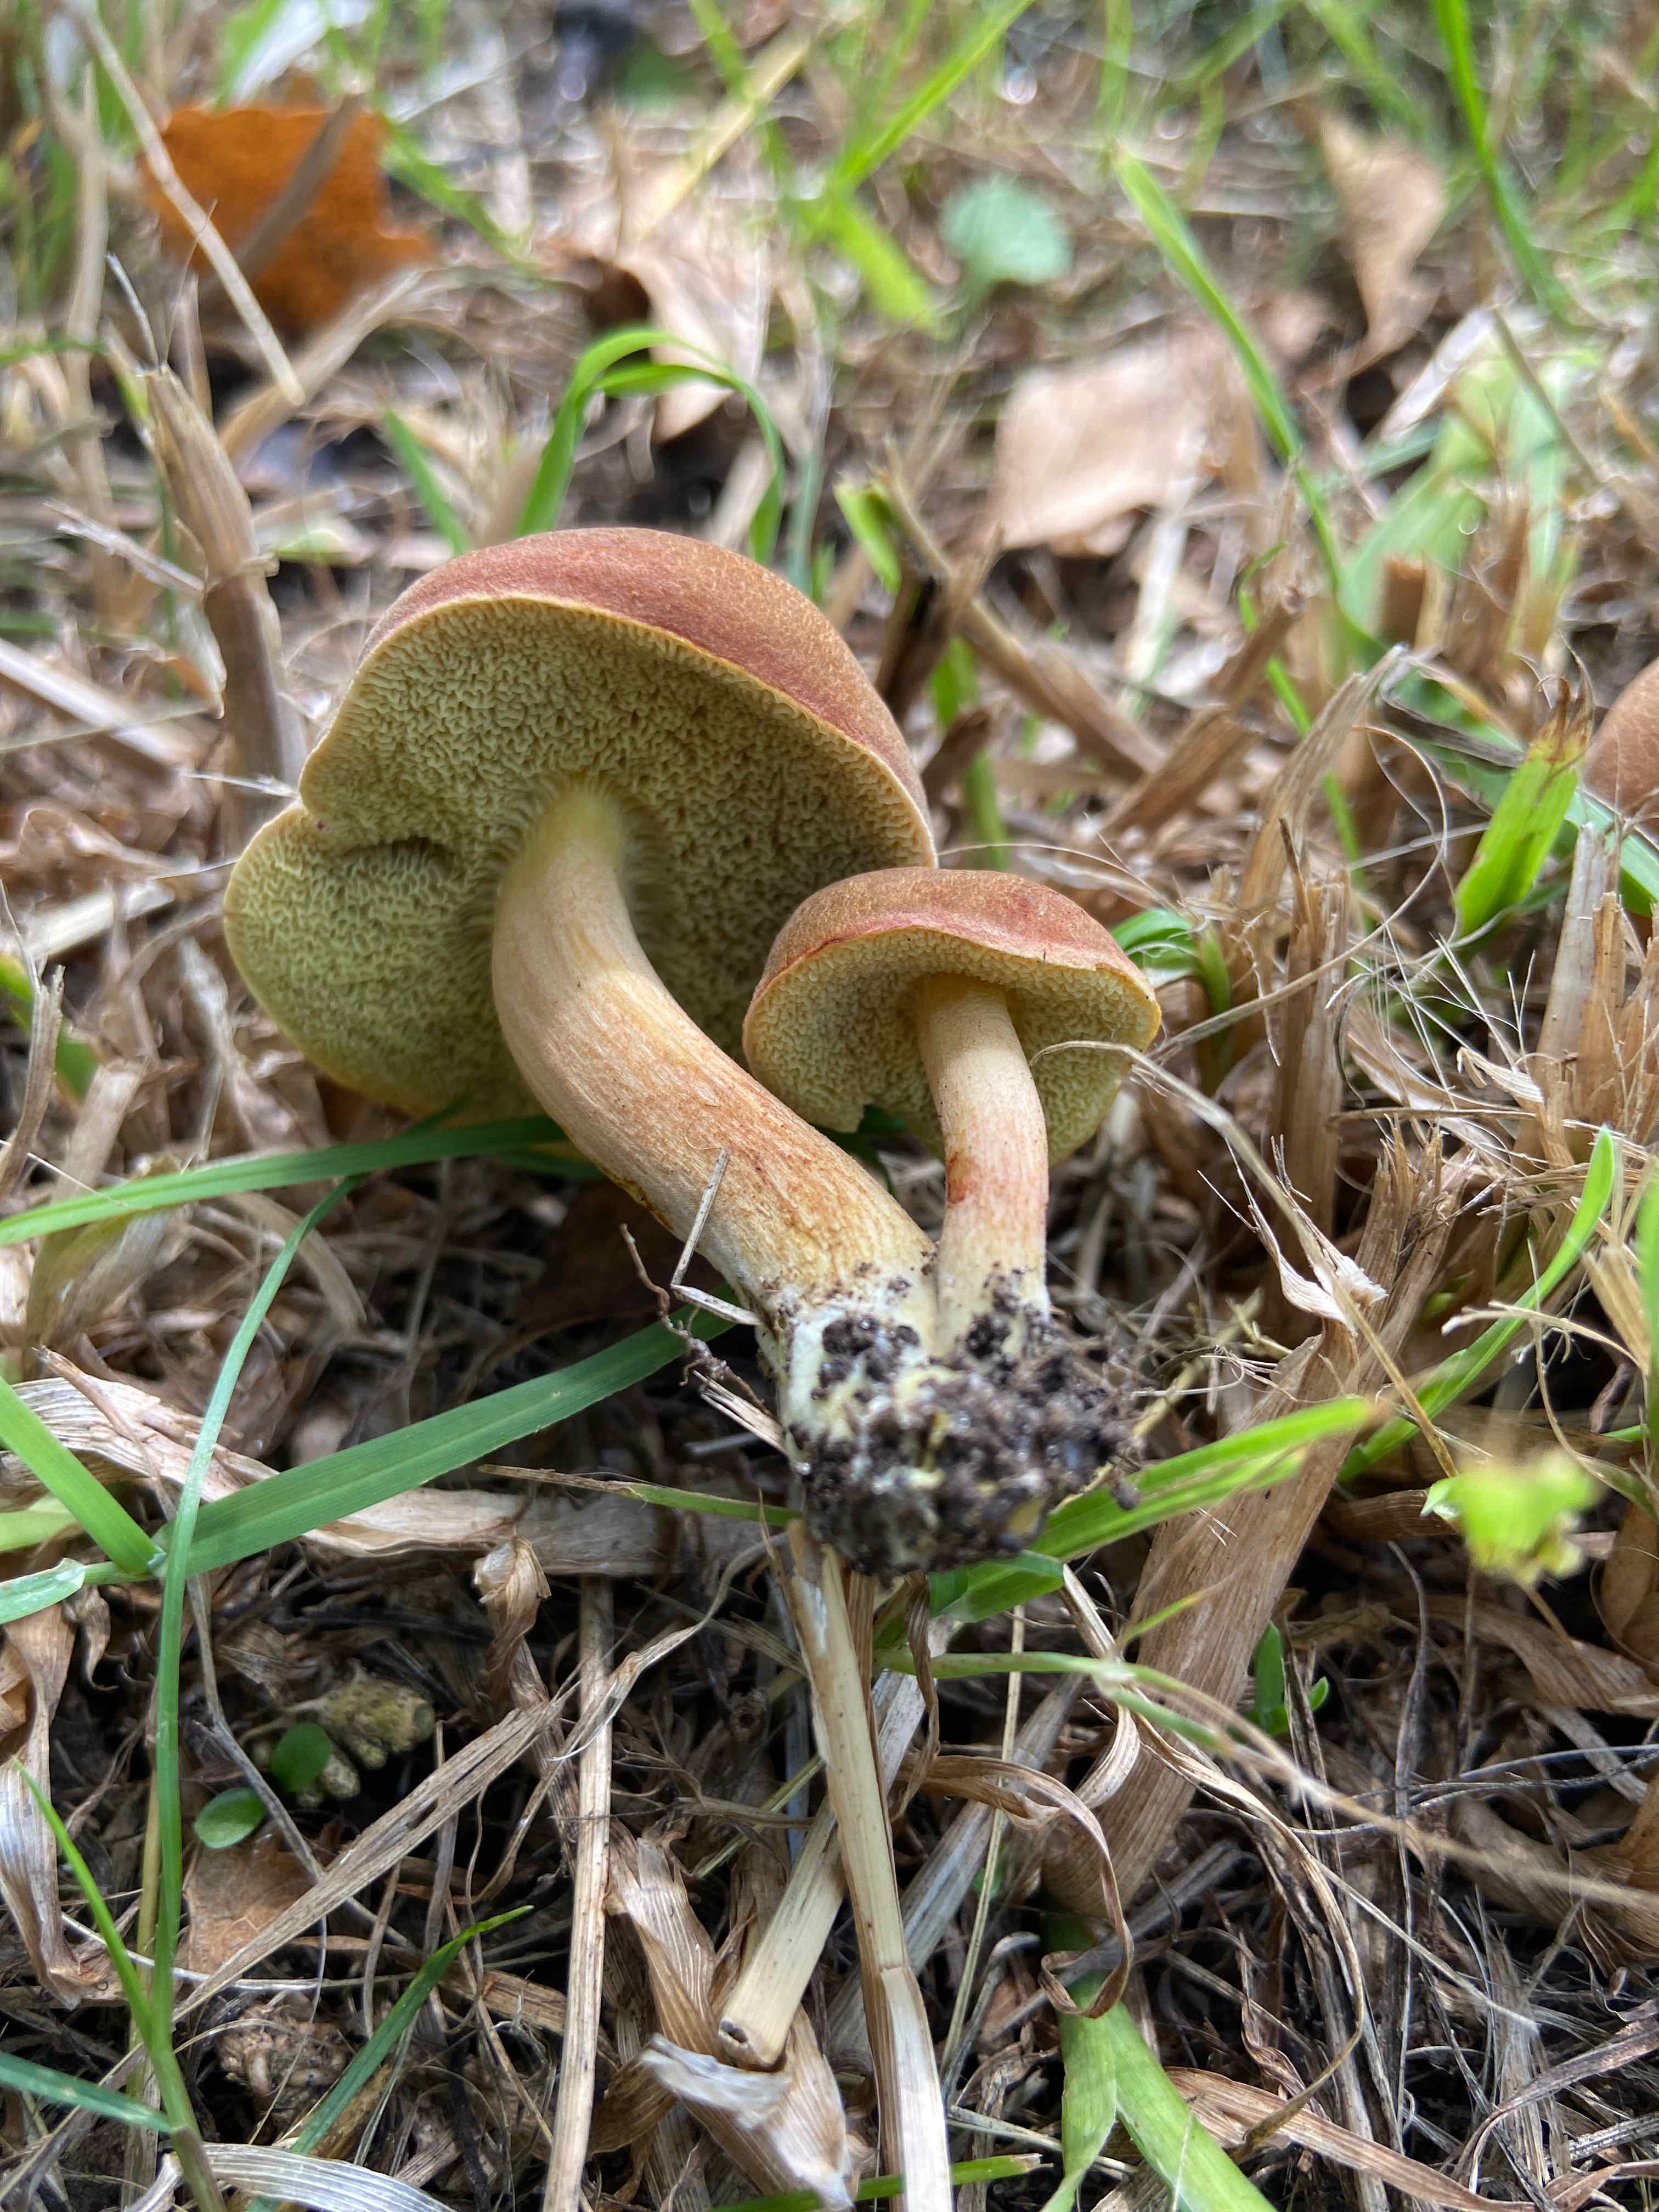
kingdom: Fungi
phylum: Basidiomycota
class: Agaricomycetes
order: Boletales
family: Boletaceae
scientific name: Boletaceae
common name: rørhatfamilien
